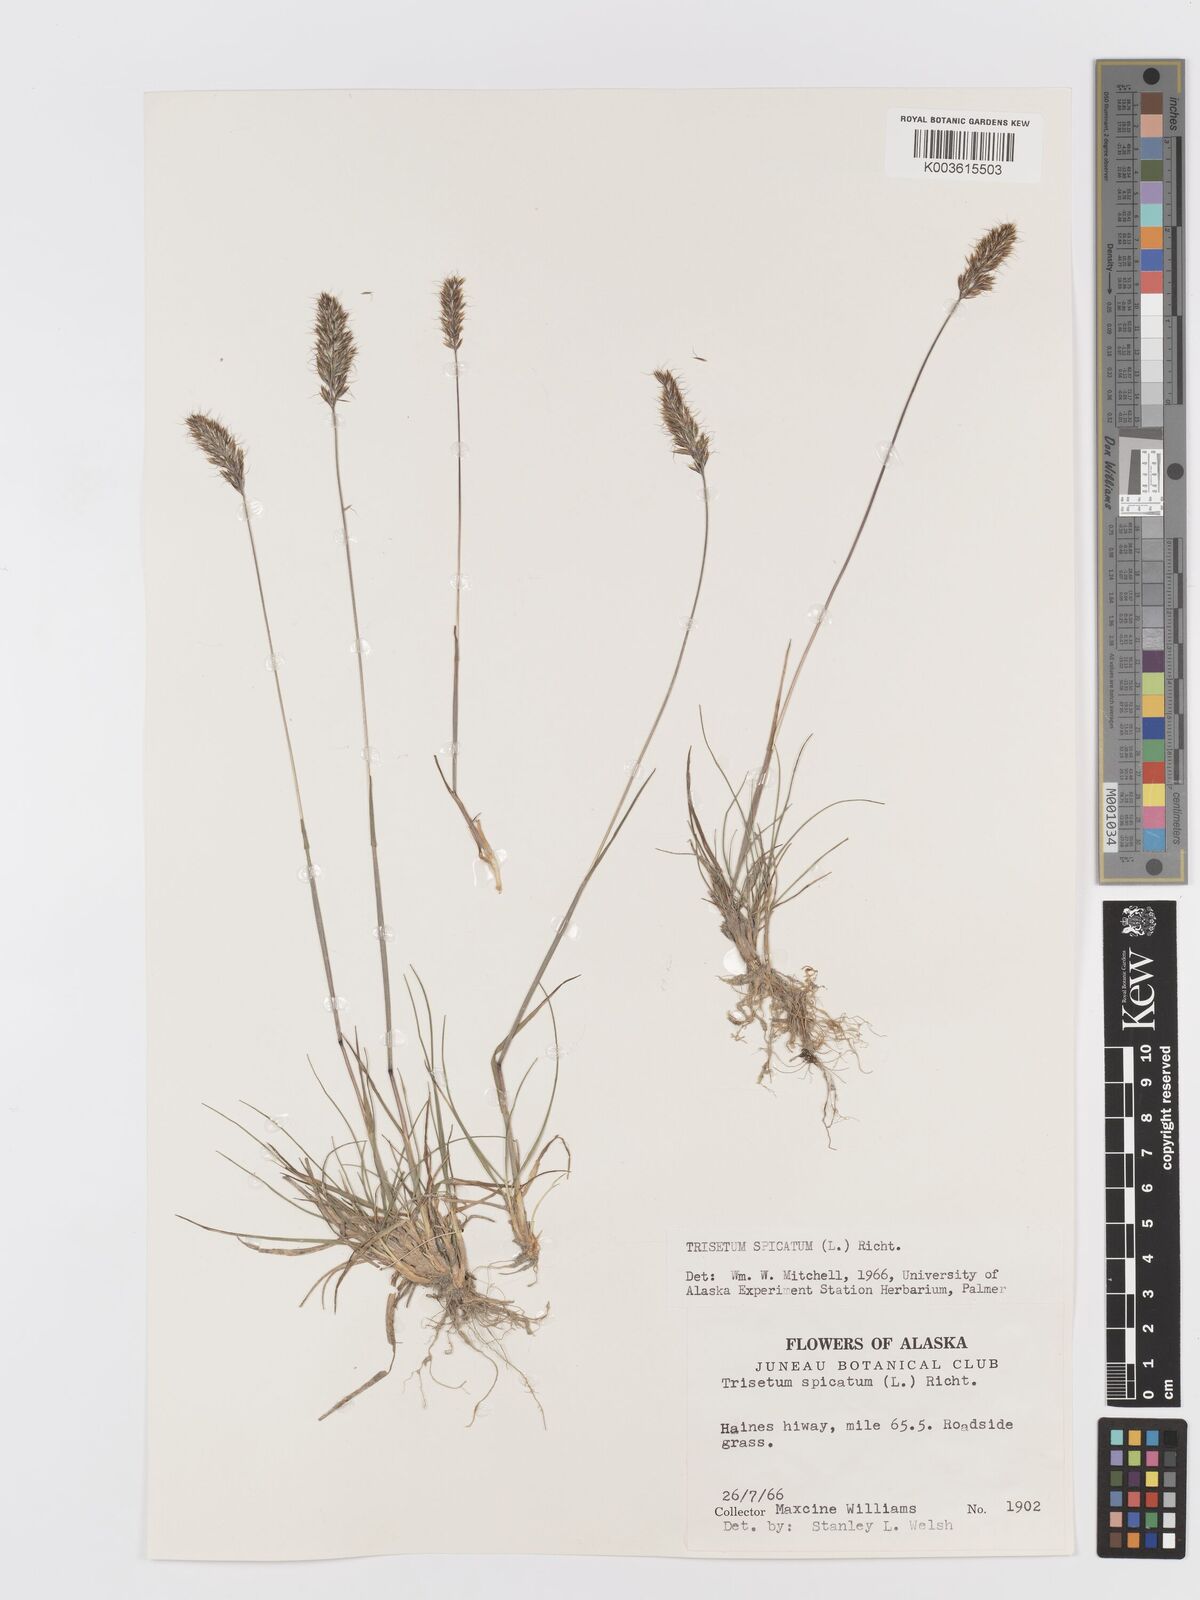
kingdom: Plantae
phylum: Tracheophyta
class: Liliopsida
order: Poales
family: Poaceae
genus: Koeleria
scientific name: Koeleria spicata
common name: Mountain trisetum
